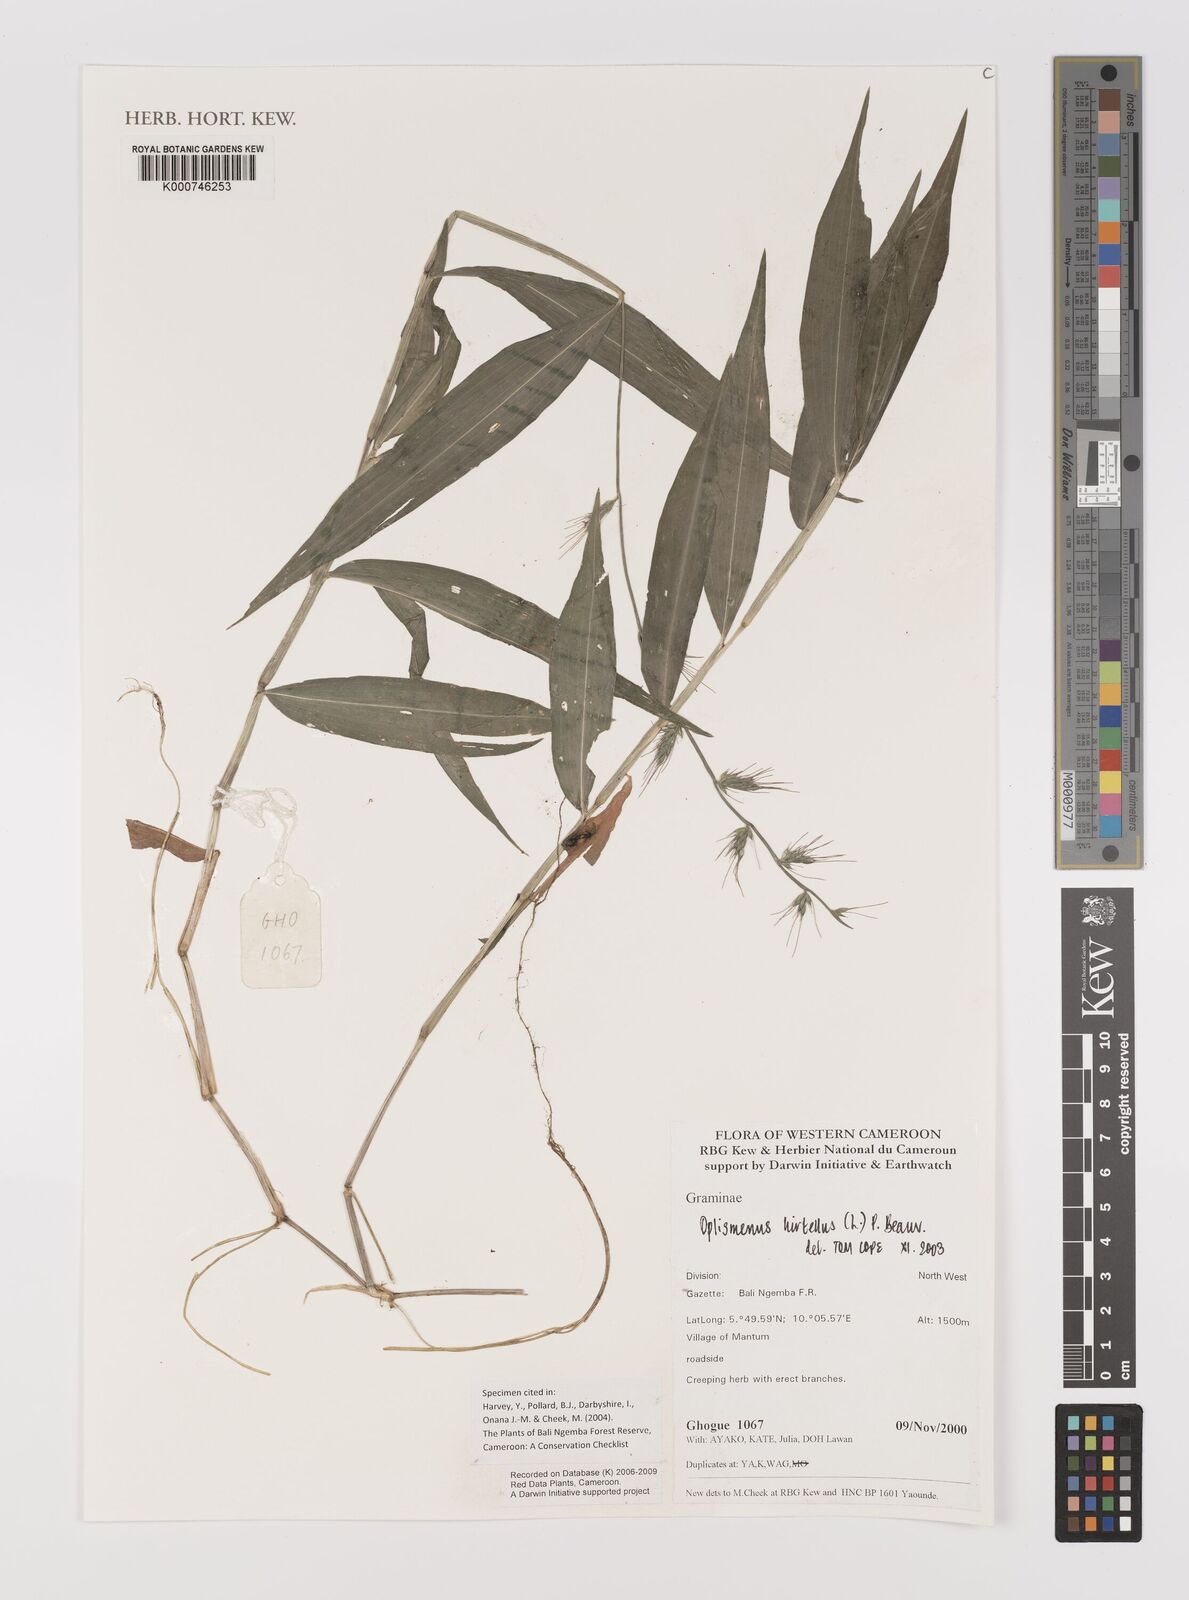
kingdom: Plantae
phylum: Tracheophyta
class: Liliopsida
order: Poales
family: Poaceae
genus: Oplismenus
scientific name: Oplismenus hirtellus
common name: Basketgrass
